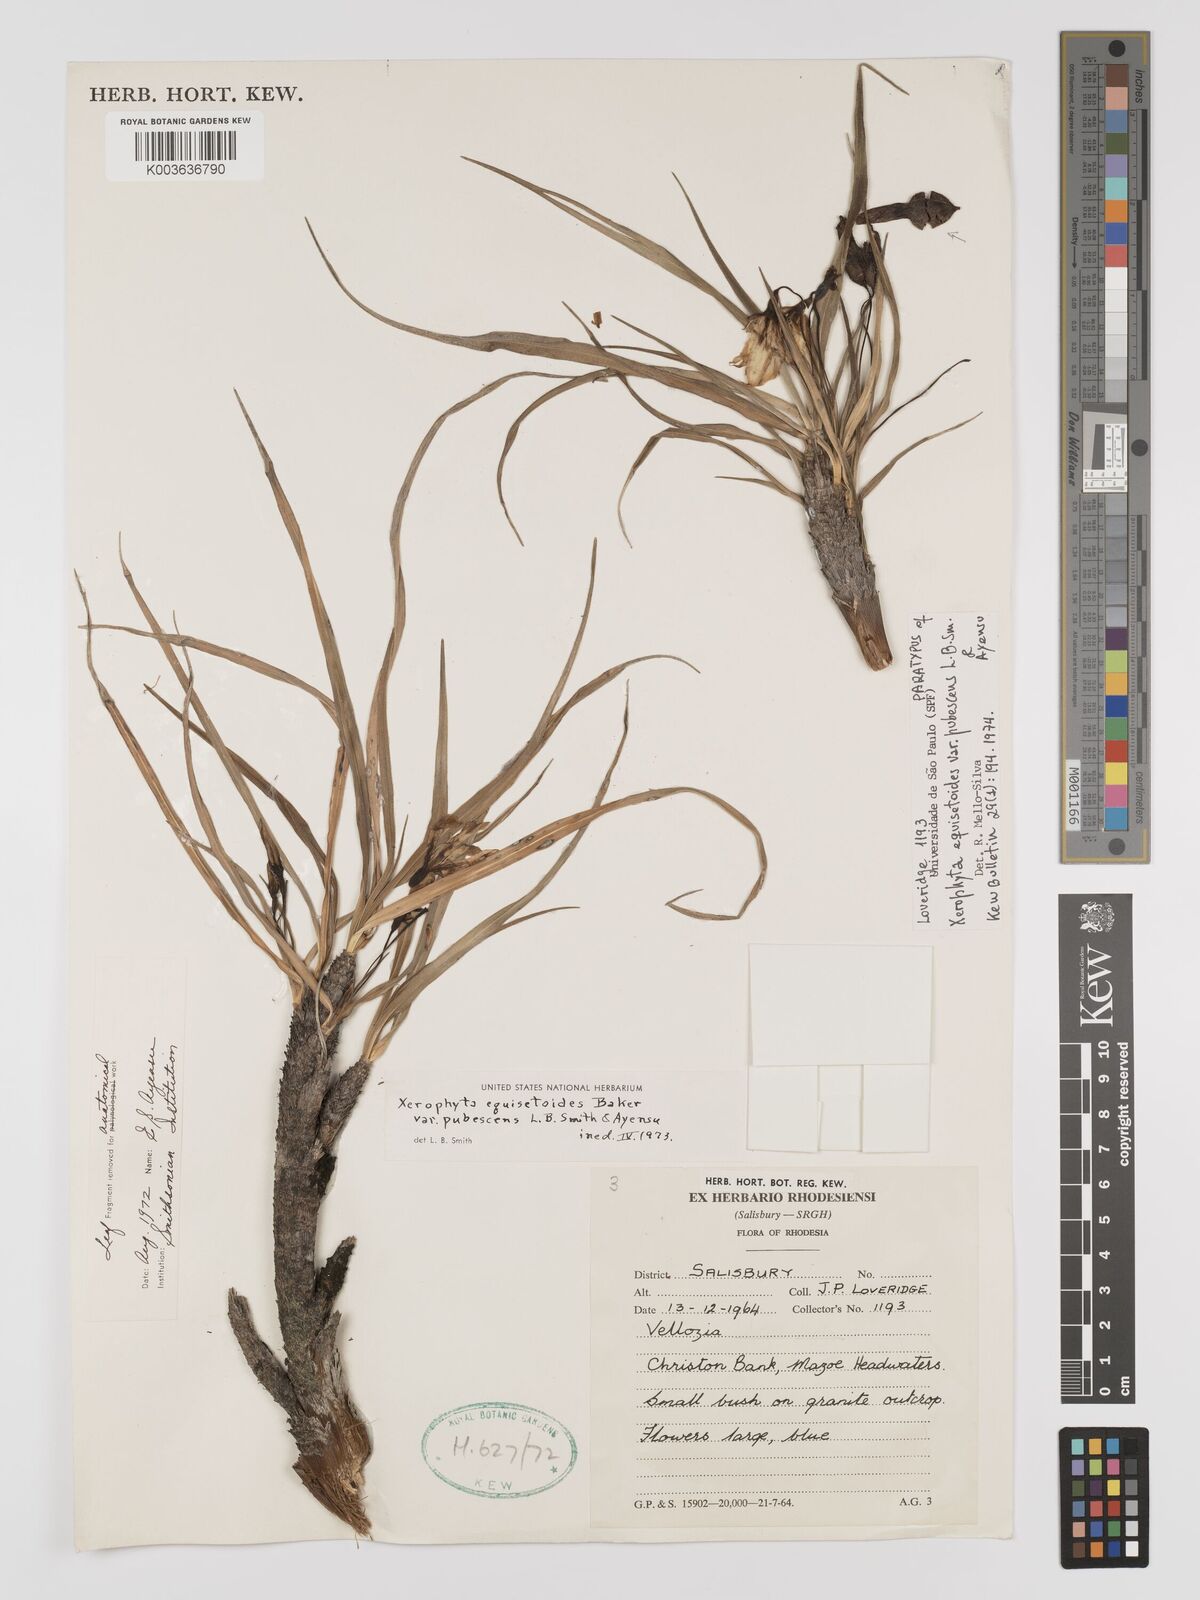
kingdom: Plantae
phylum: Tracheophyta
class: Liliopsida
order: Pandanales
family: Velloziaceae
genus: Xerophyta
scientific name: Xerophyta wentzeliana
